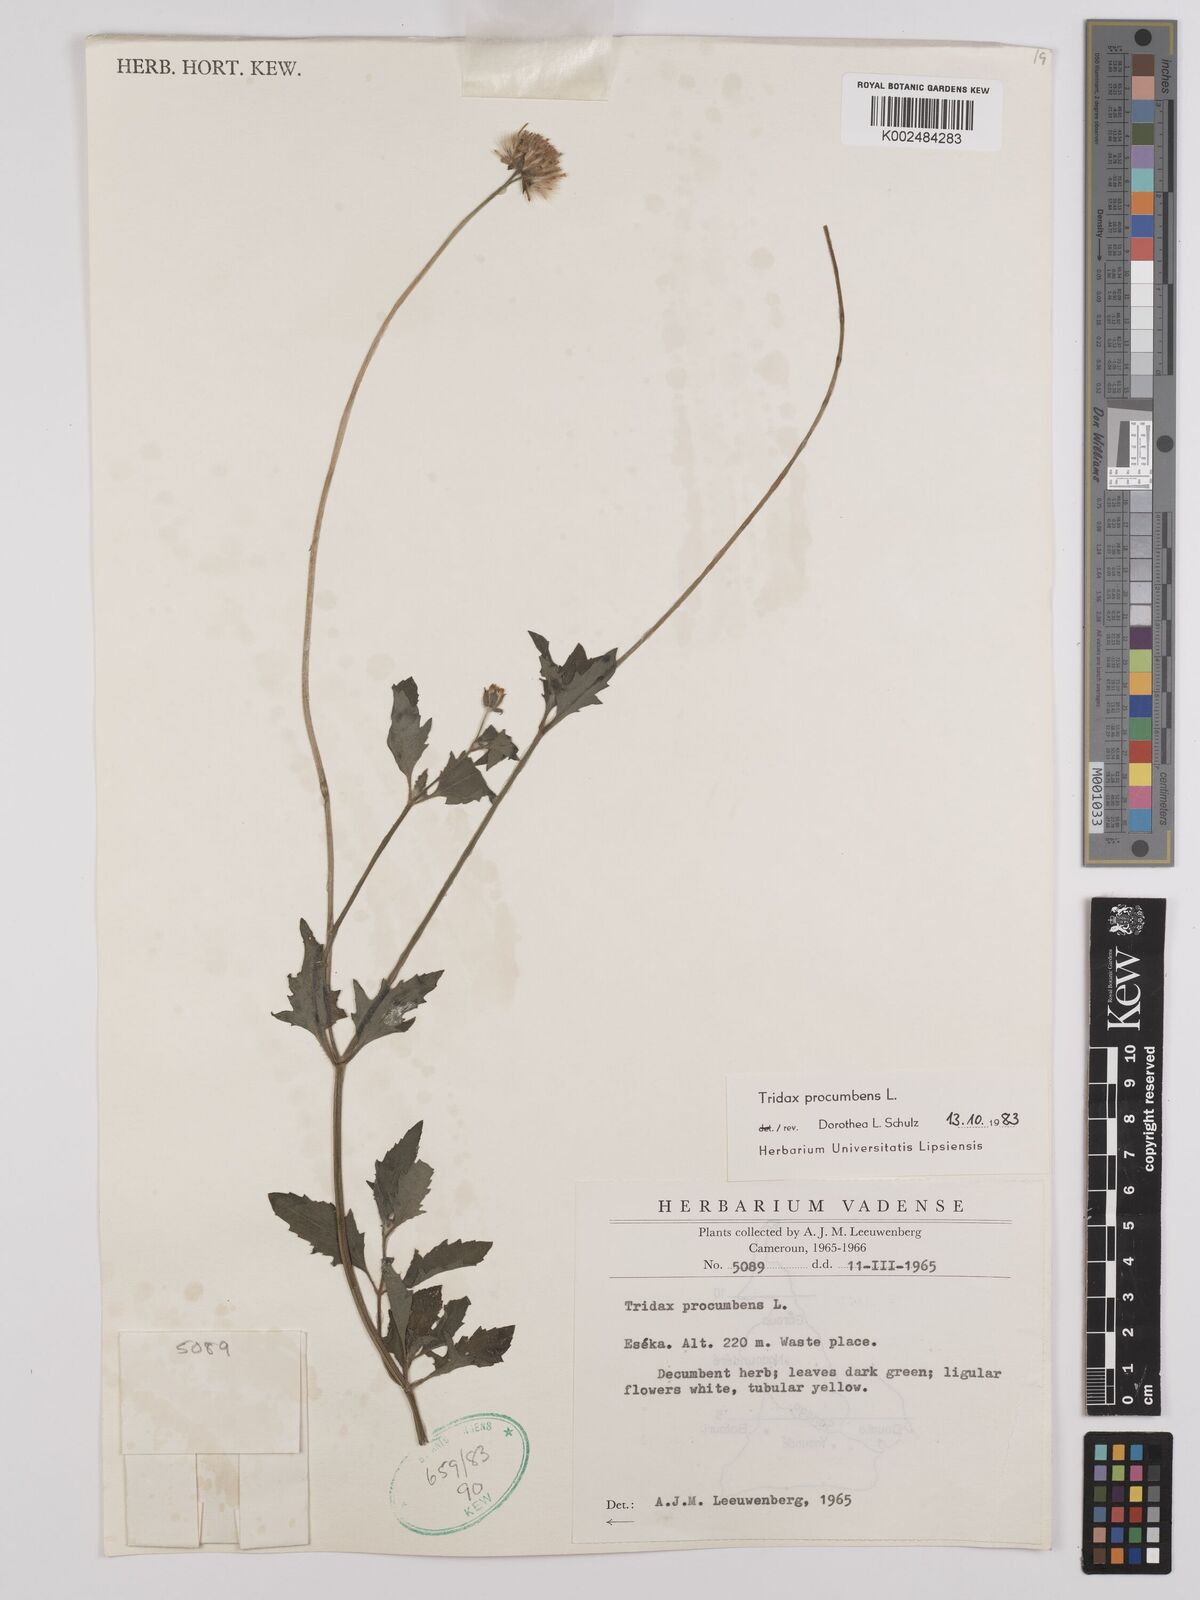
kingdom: Plantae
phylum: Tracheophyta
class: Magnoliopsida
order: Asterales
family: Asteraceae
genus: Tridax
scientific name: Tridax procumbens
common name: Coatbuttons
